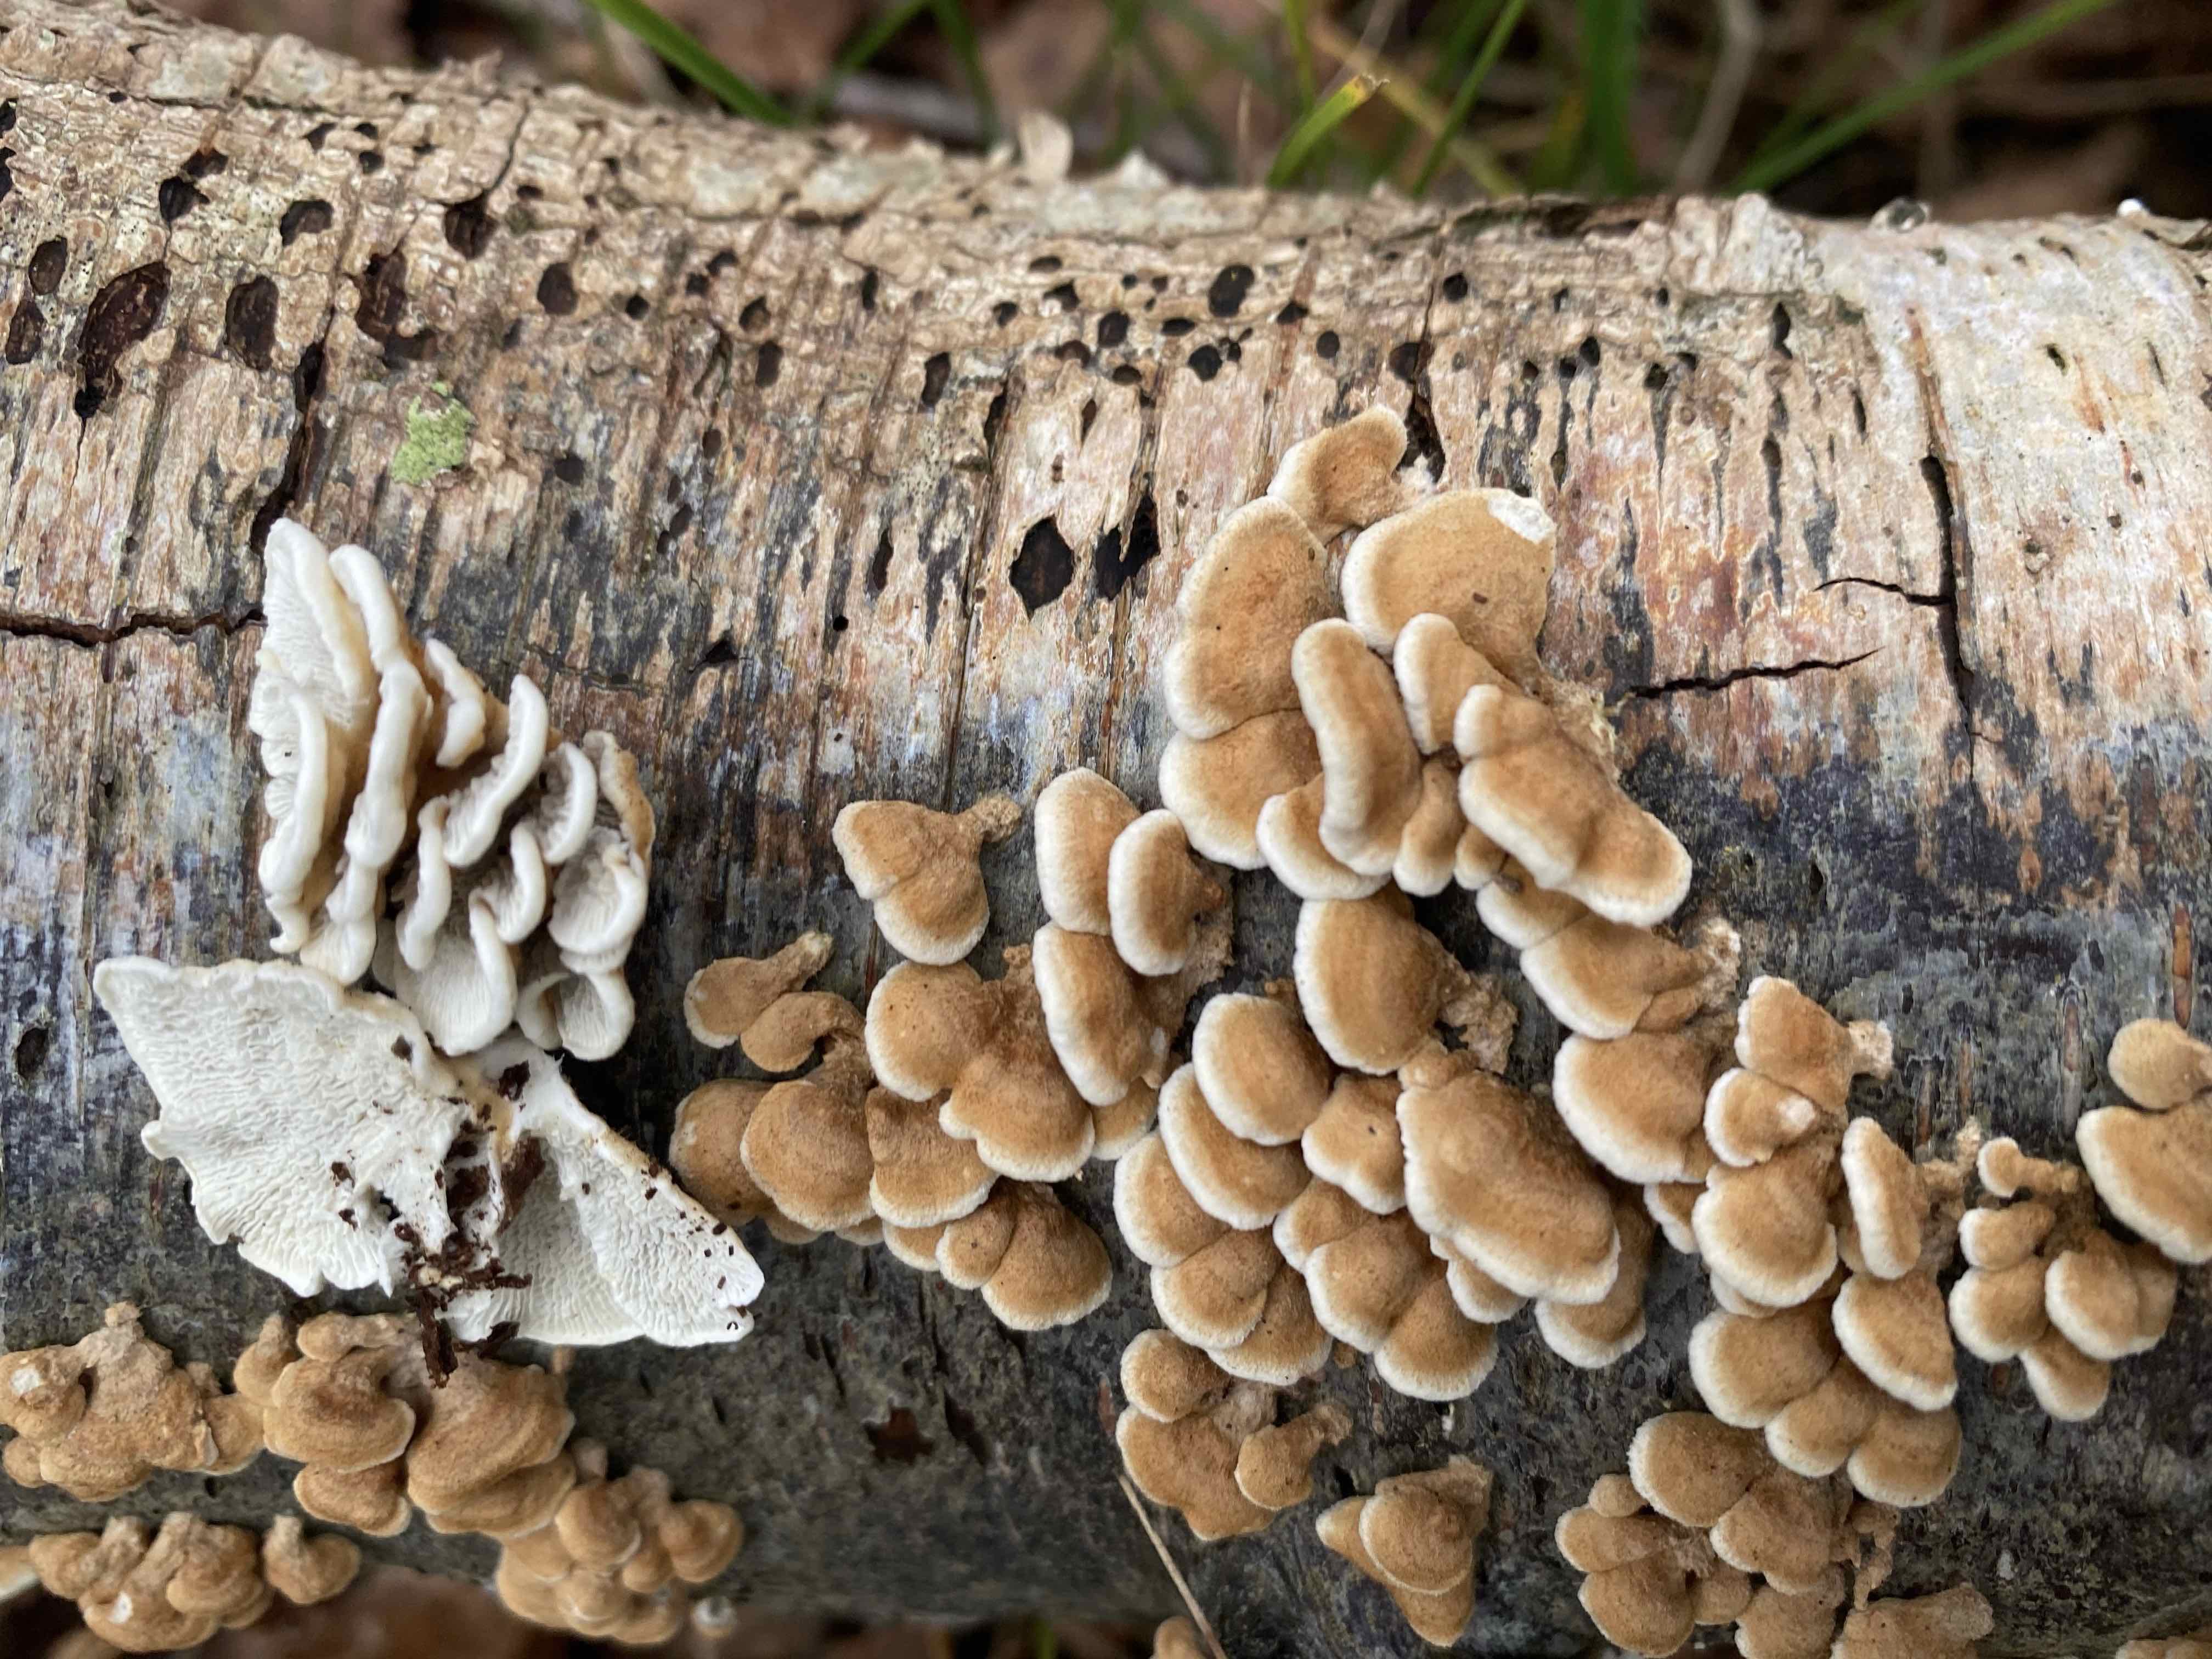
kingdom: Fungi
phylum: Basidiomycota
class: Agaricomycetes
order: Amylocorticiales
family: Amylocorticiaceae
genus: Plicaturopsis
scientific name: Plicaturopsis crispa
